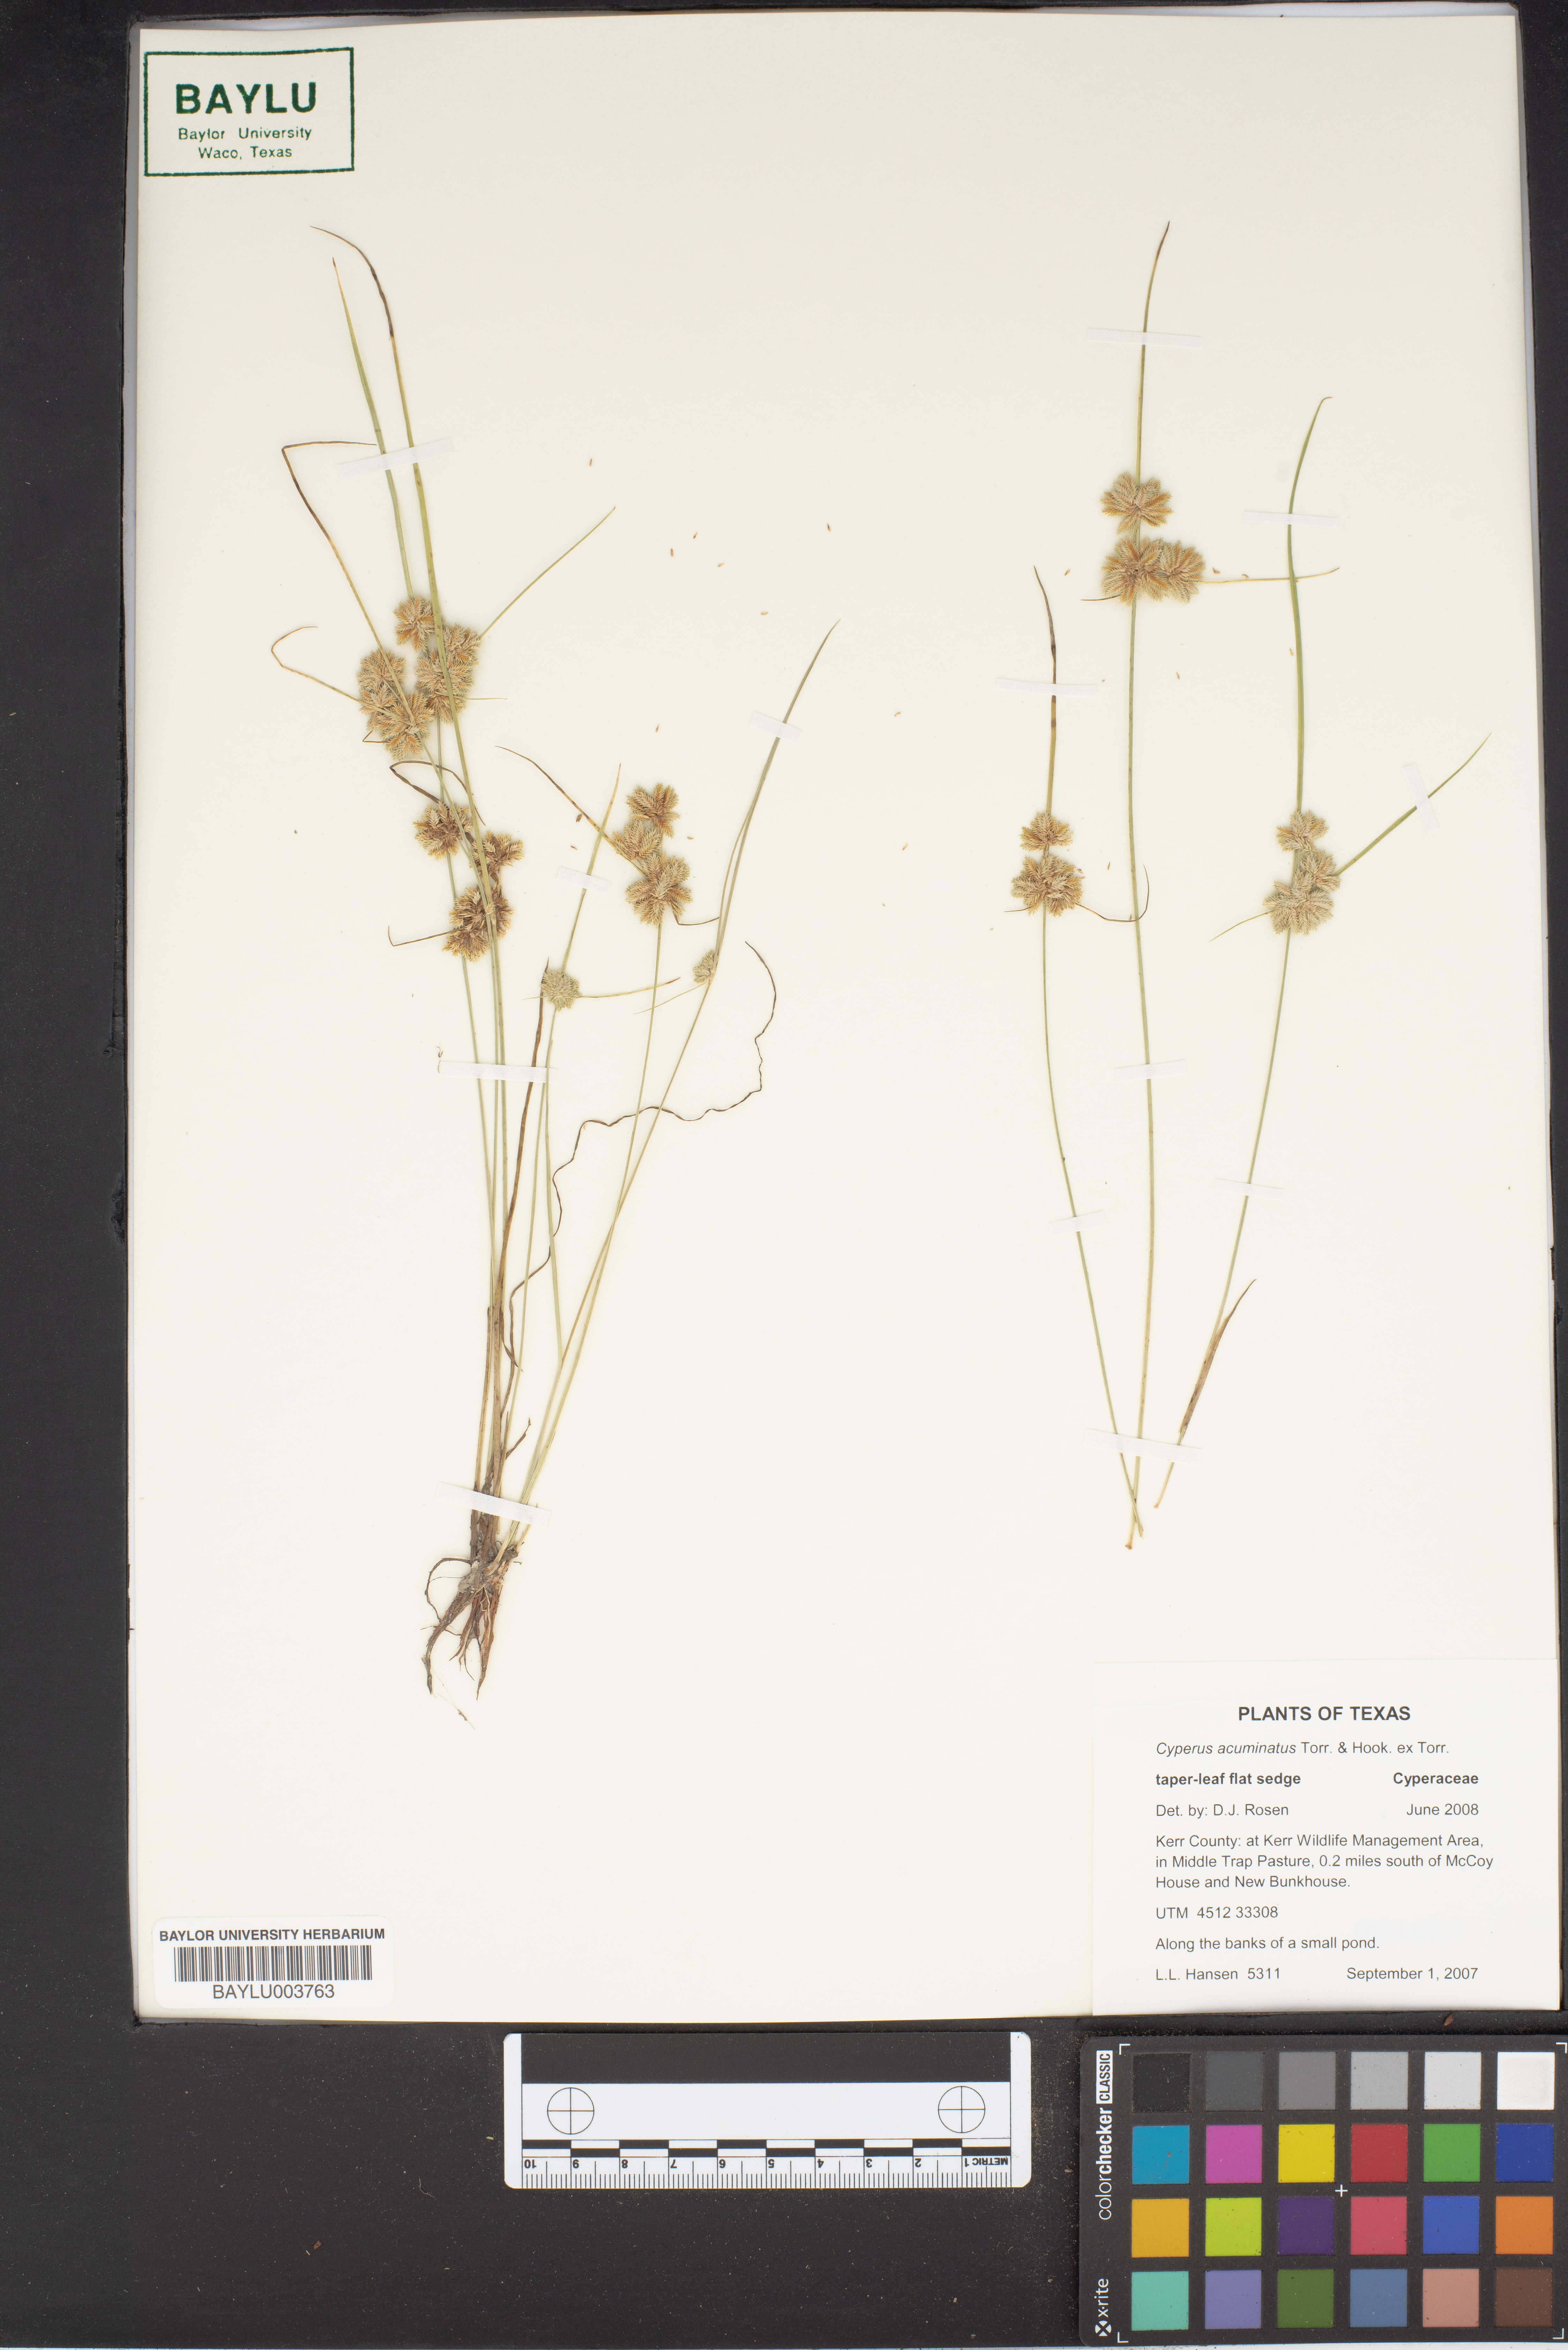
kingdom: Plantae
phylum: Tracheophyta
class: Liliopsida
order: Poales
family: Cyperaceae
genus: Cyperus
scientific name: Cyperus acuminatus
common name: Short-pointed cyperus
